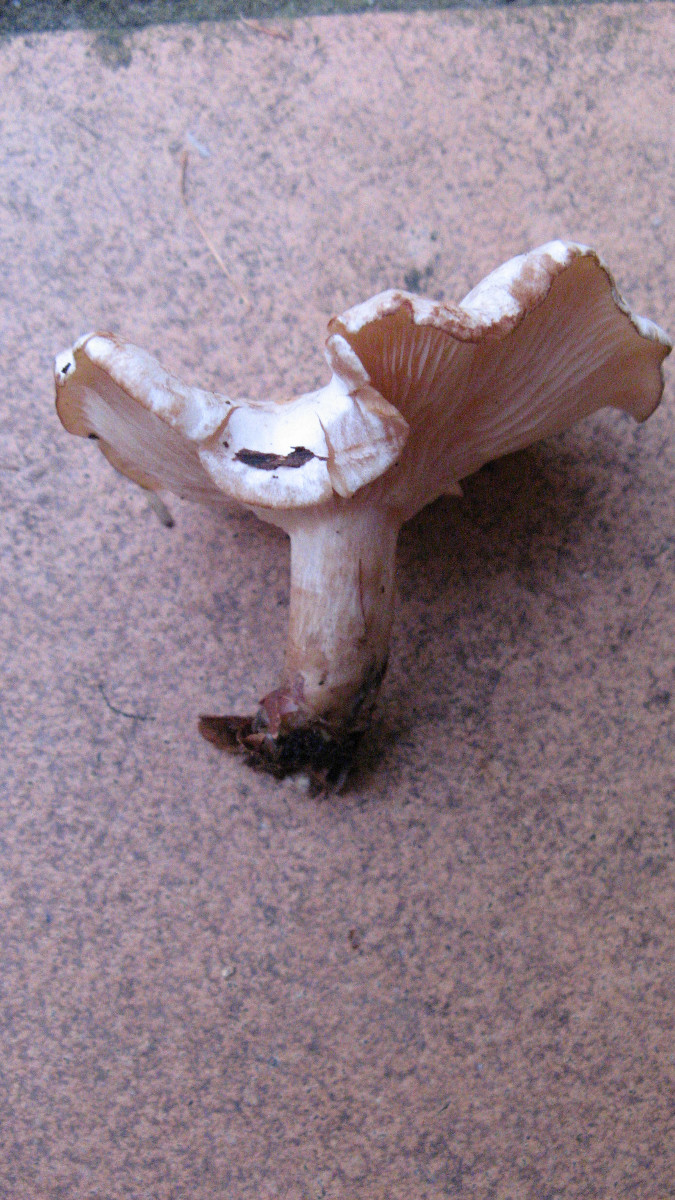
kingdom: Fungi
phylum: Basidiomycota
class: Agaricomycetes
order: Agaricales
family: Tricholomataceae
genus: Clitocybe
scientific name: Clitocybe phyllophila
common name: løv-tragthat
